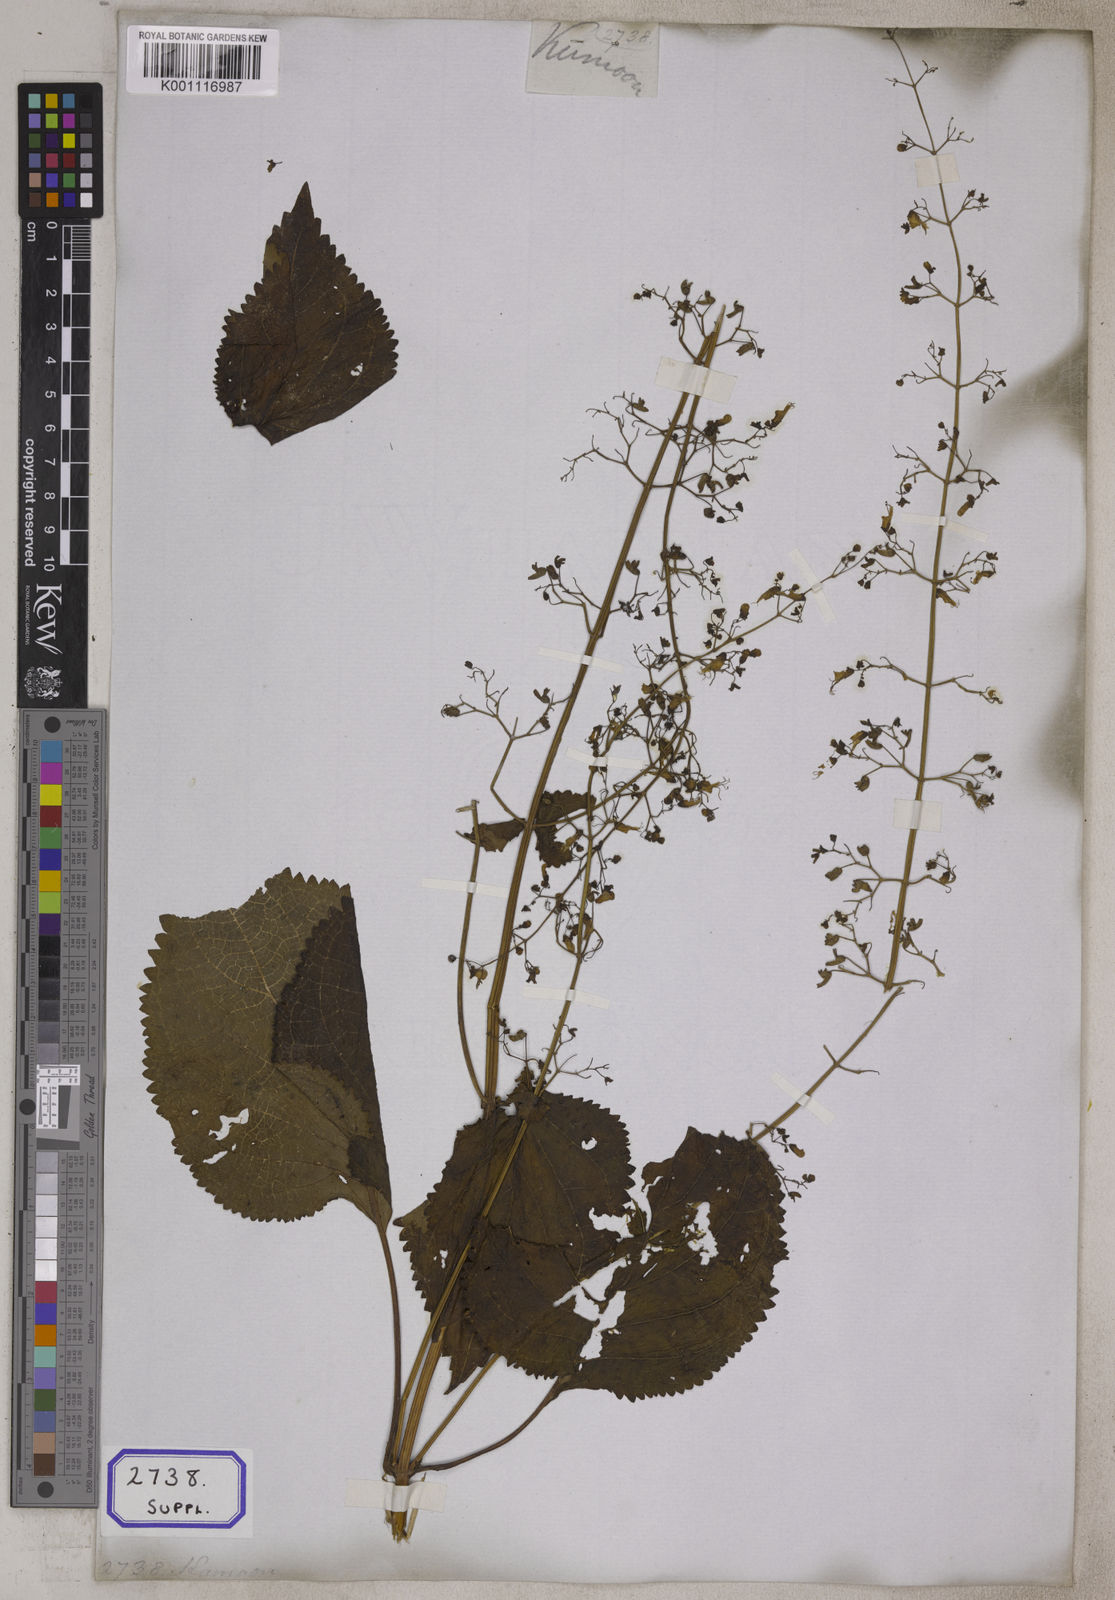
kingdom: Plantae
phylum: Tracheophyta
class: Magnoliopsida
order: Lamiales
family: Lamiaceae
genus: Plectranthus
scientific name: Plectranthus
